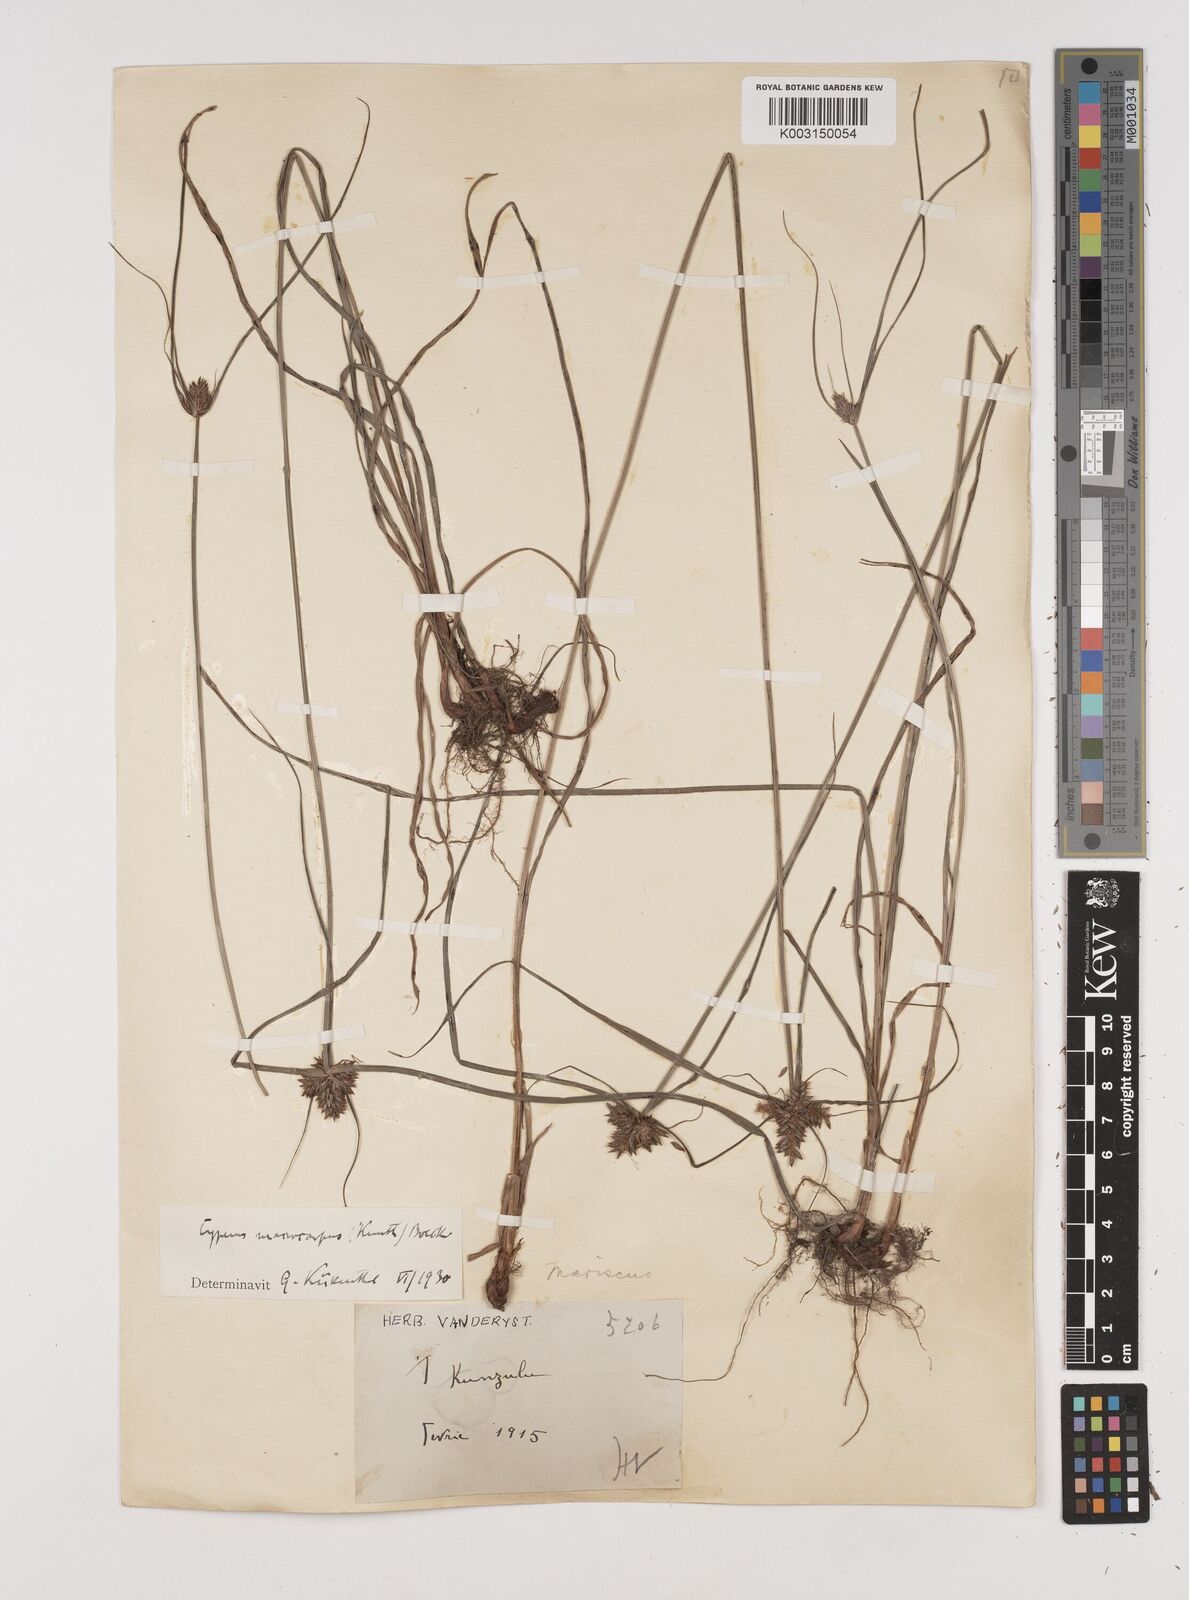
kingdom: Plantae
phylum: Tracheophyta
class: Liliopsida
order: Poales
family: Cyperaceae
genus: Cyperus
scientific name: Cyperus macrocarpus
